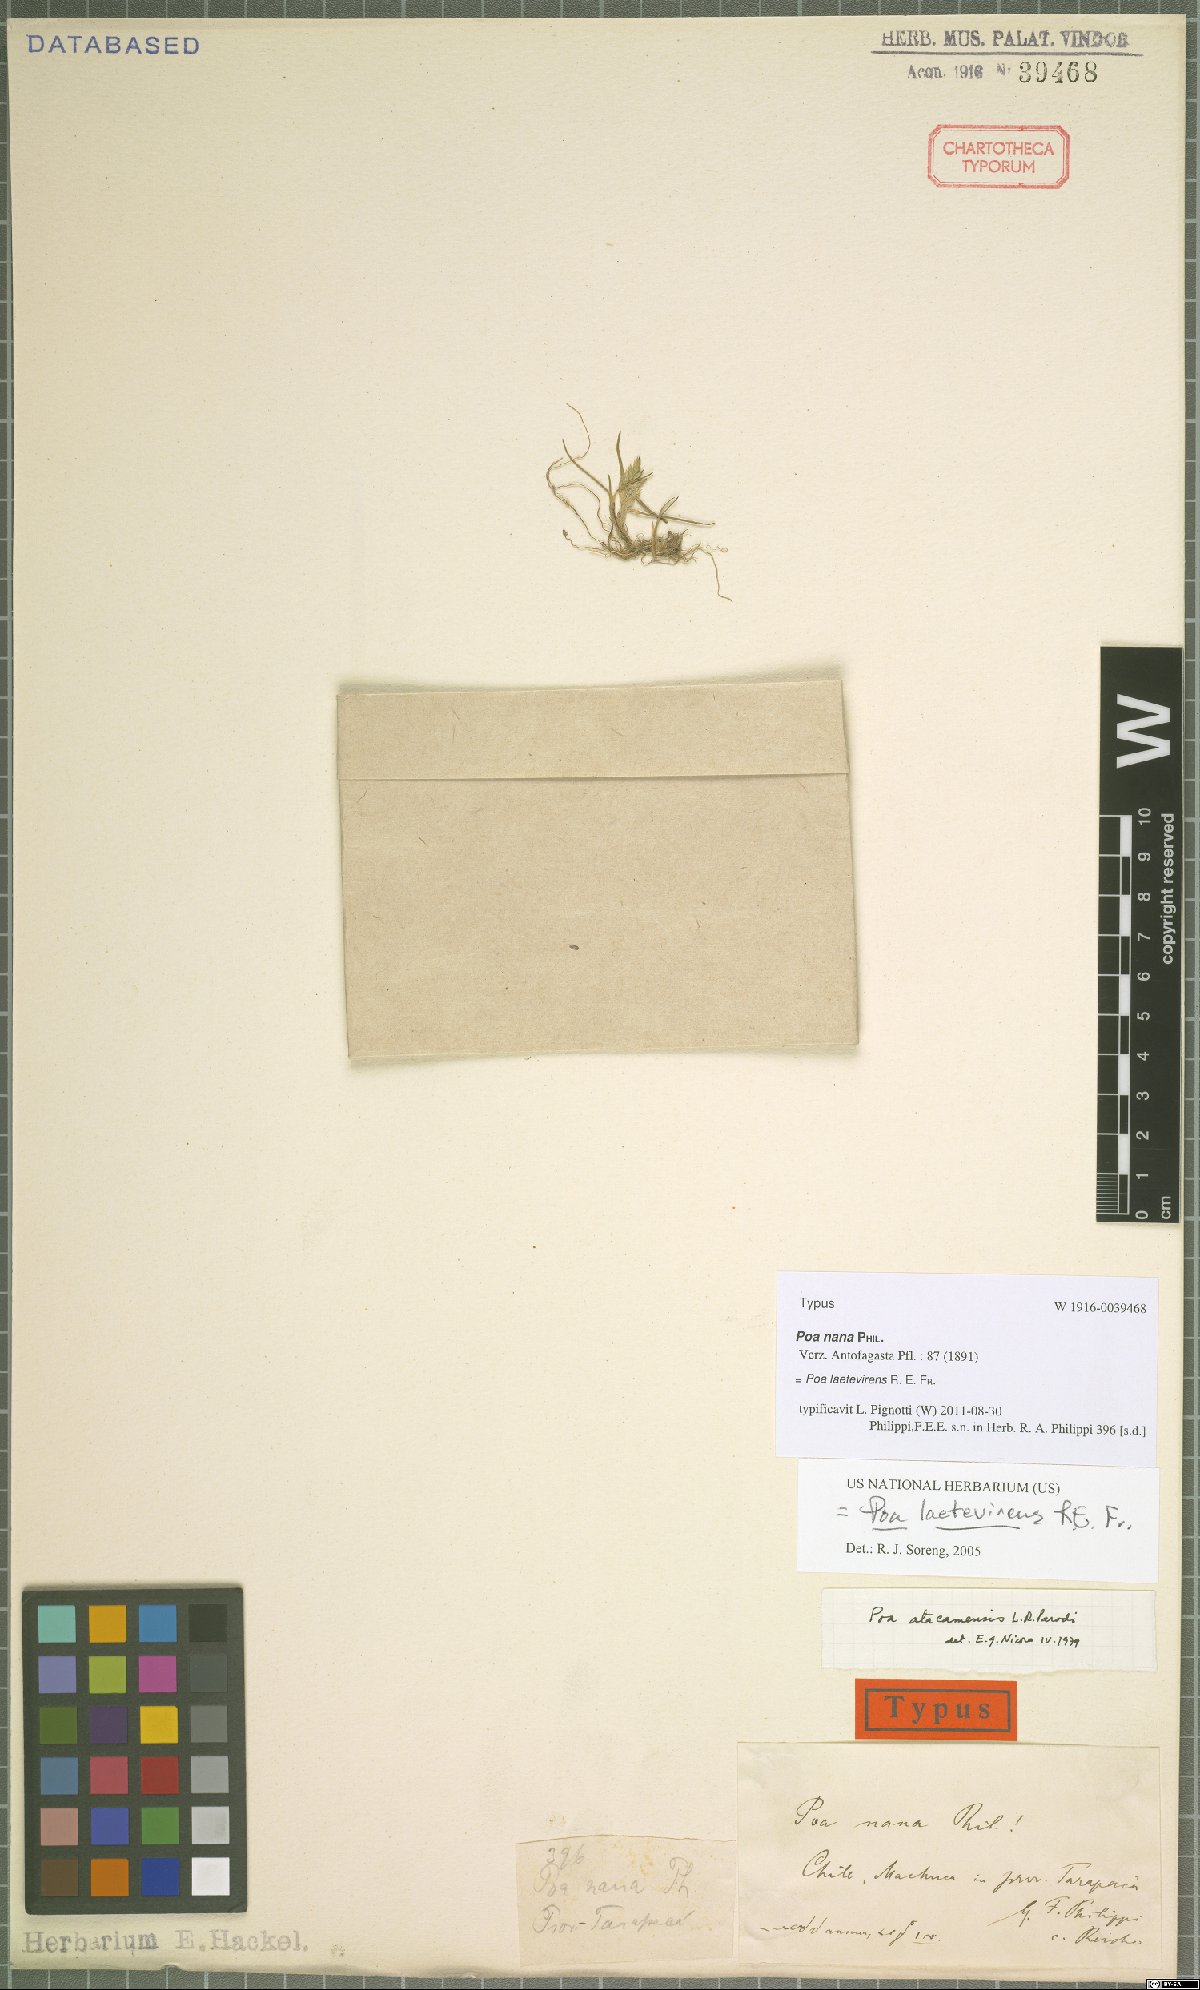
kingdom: Plantae
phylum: Tracheophyta
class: Liliopsida
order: Poales
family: Poaceae
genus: Poa
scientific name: Poa laetevirens
